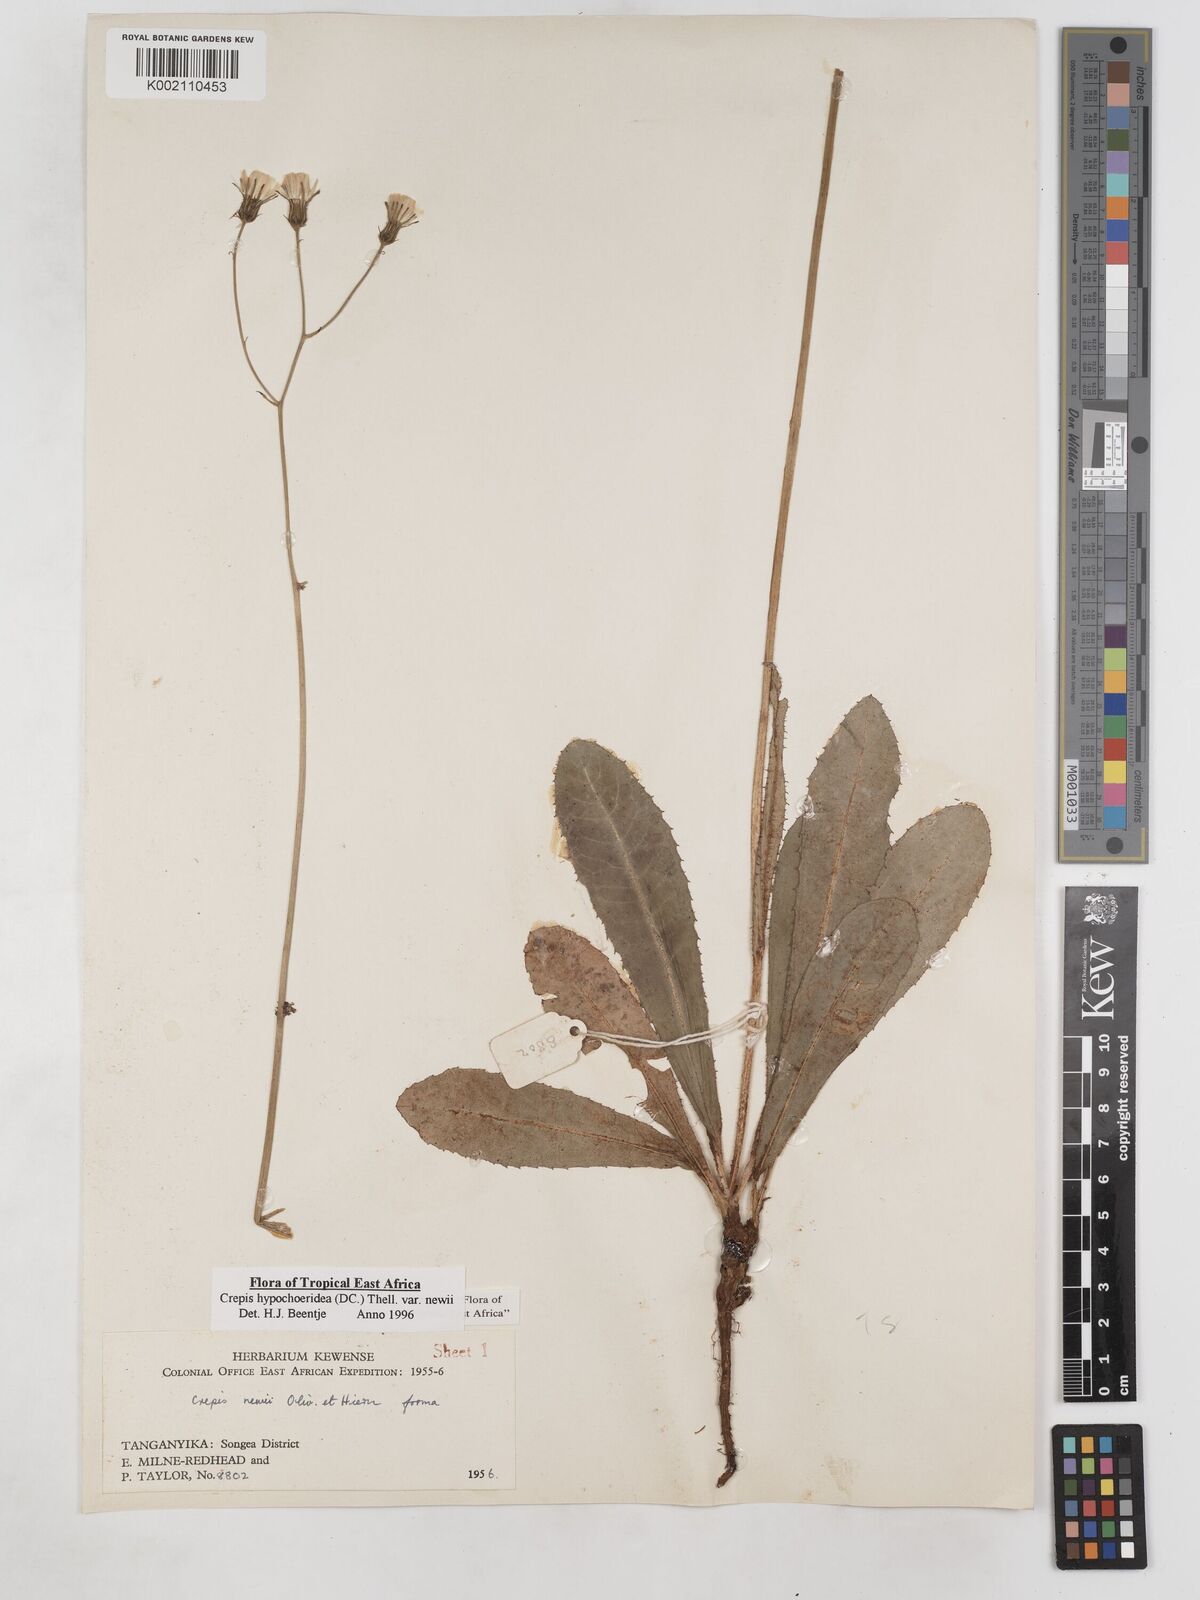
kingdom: Plantae
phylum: Tracheophyta
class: Magnoliopsida
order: Asterales
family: Asteraceae
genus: Crepis
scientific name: Crepis hypochoeridea
